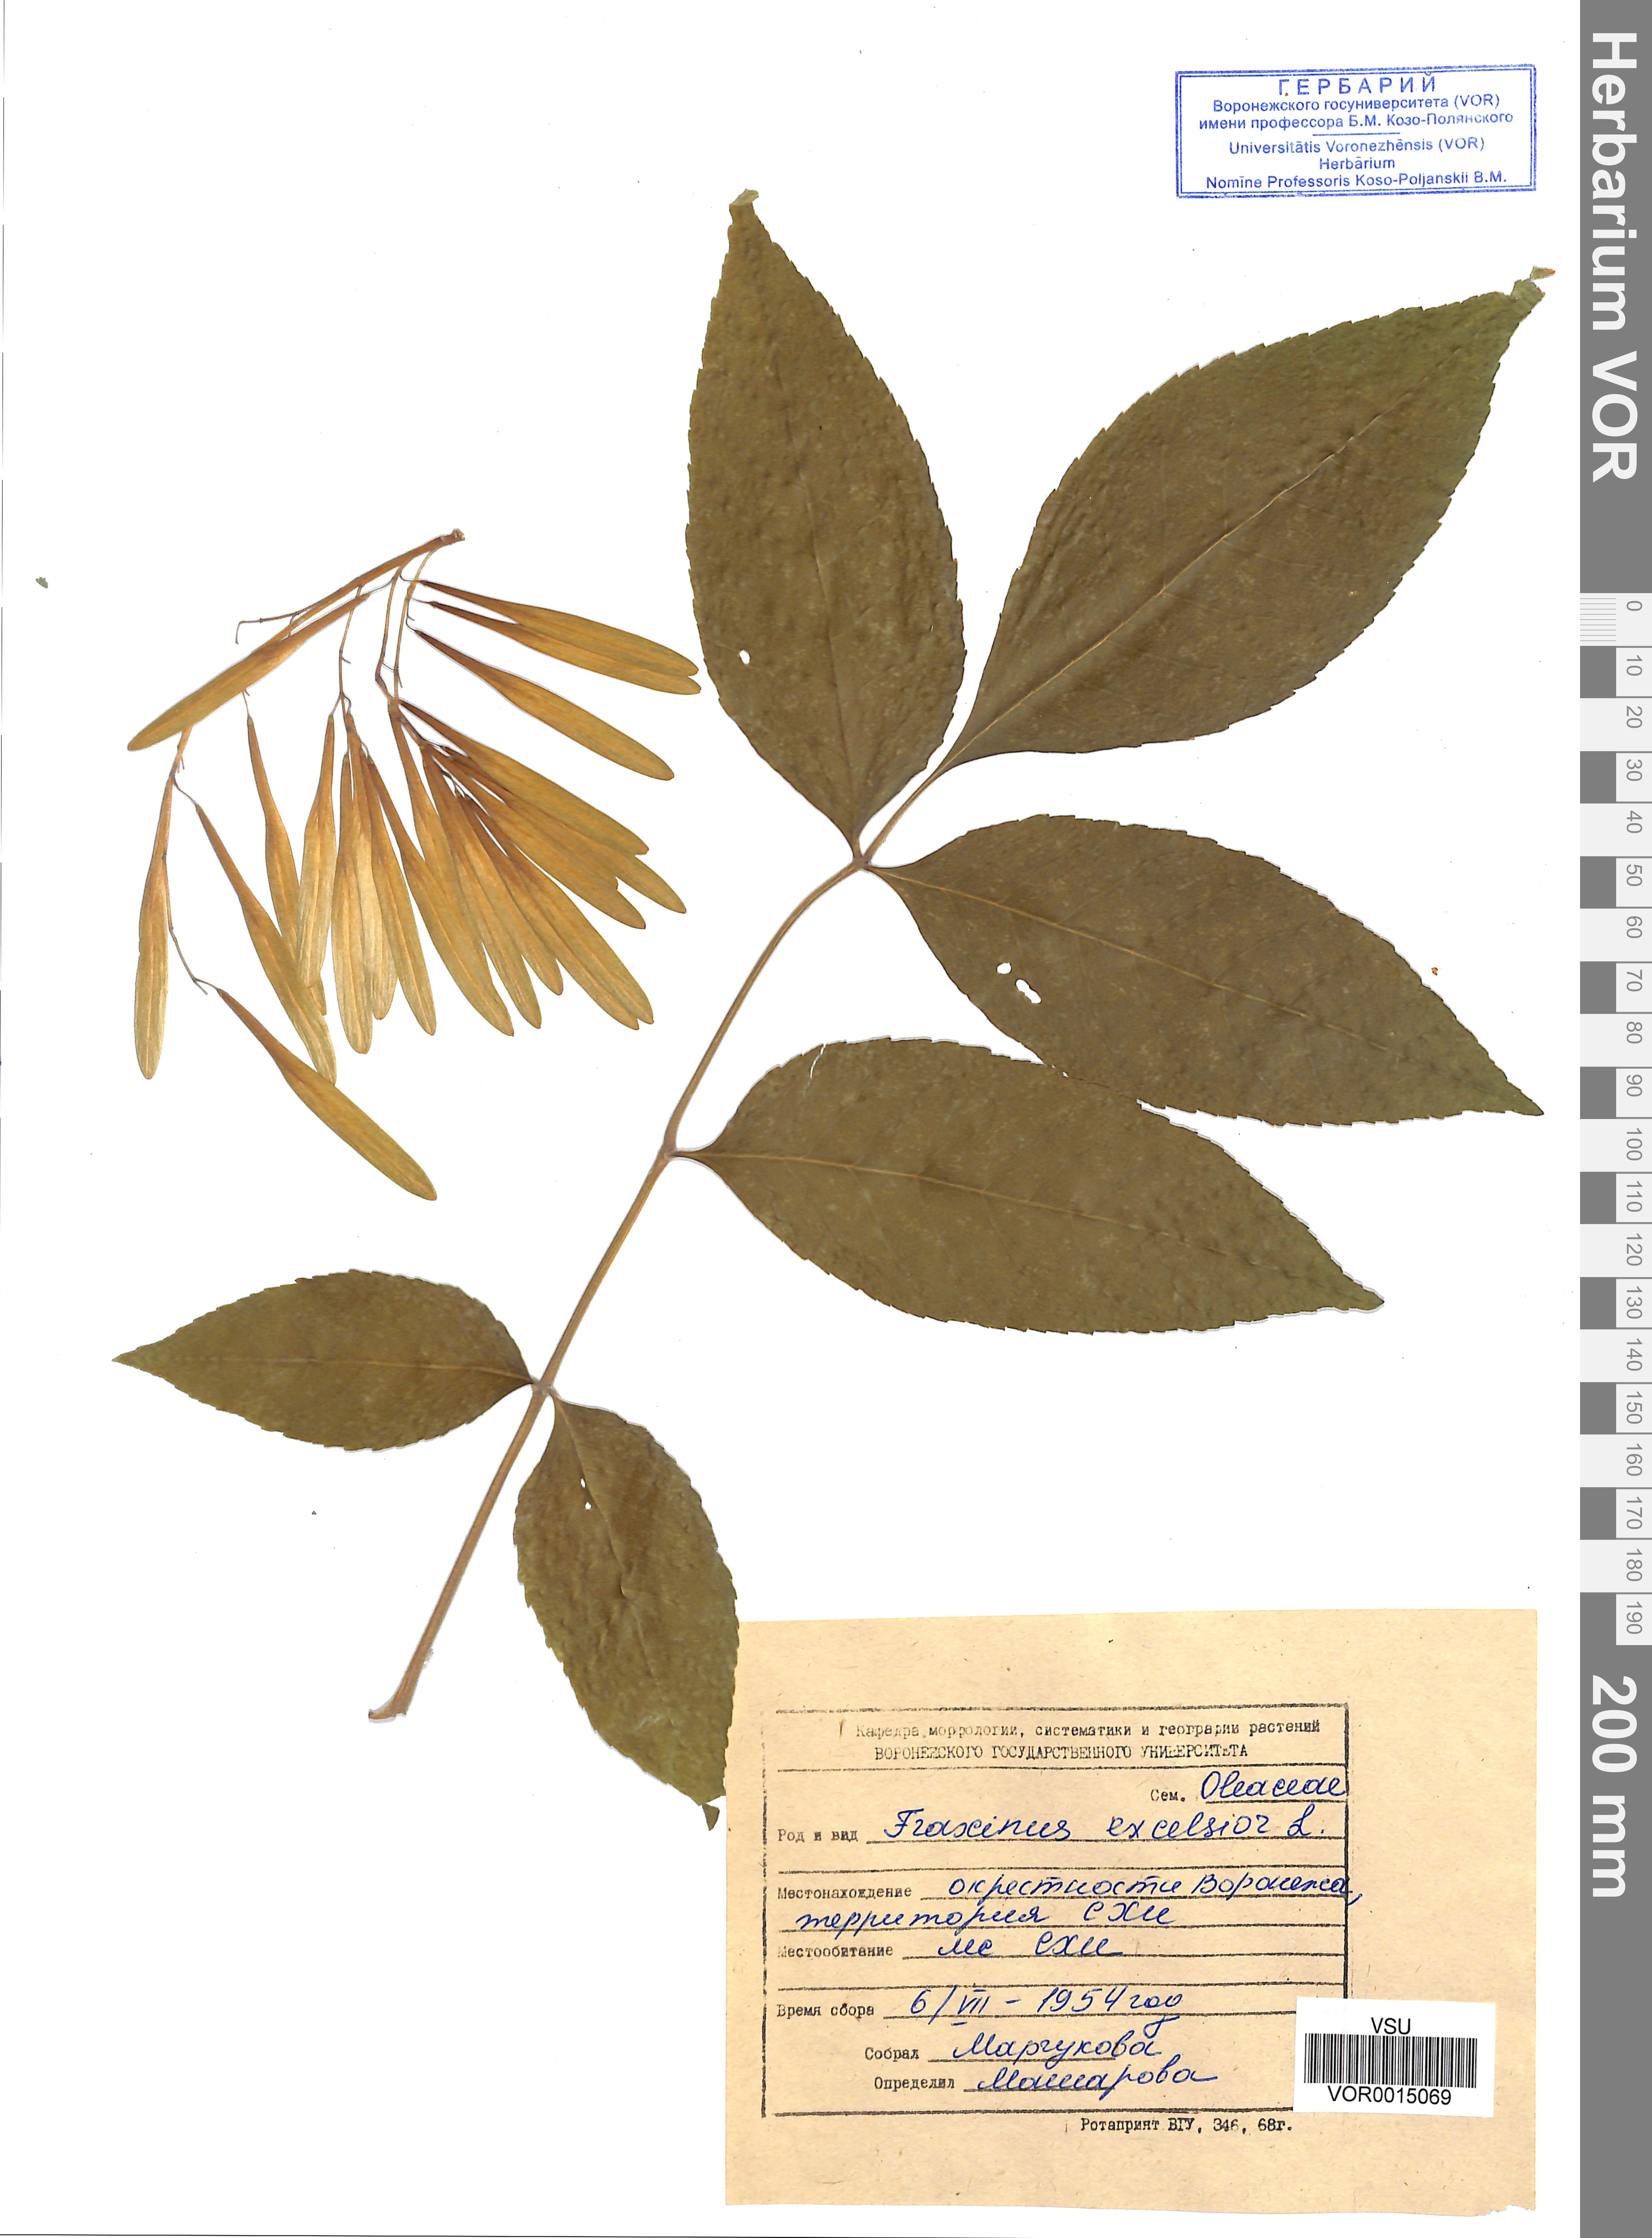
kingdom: Plantae
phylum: Tracheophyta
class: Magnoliopsida
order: Lamiales
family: Oleaceae
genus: Fraxinus
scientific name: Fraxinus excelsior
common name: European ash
